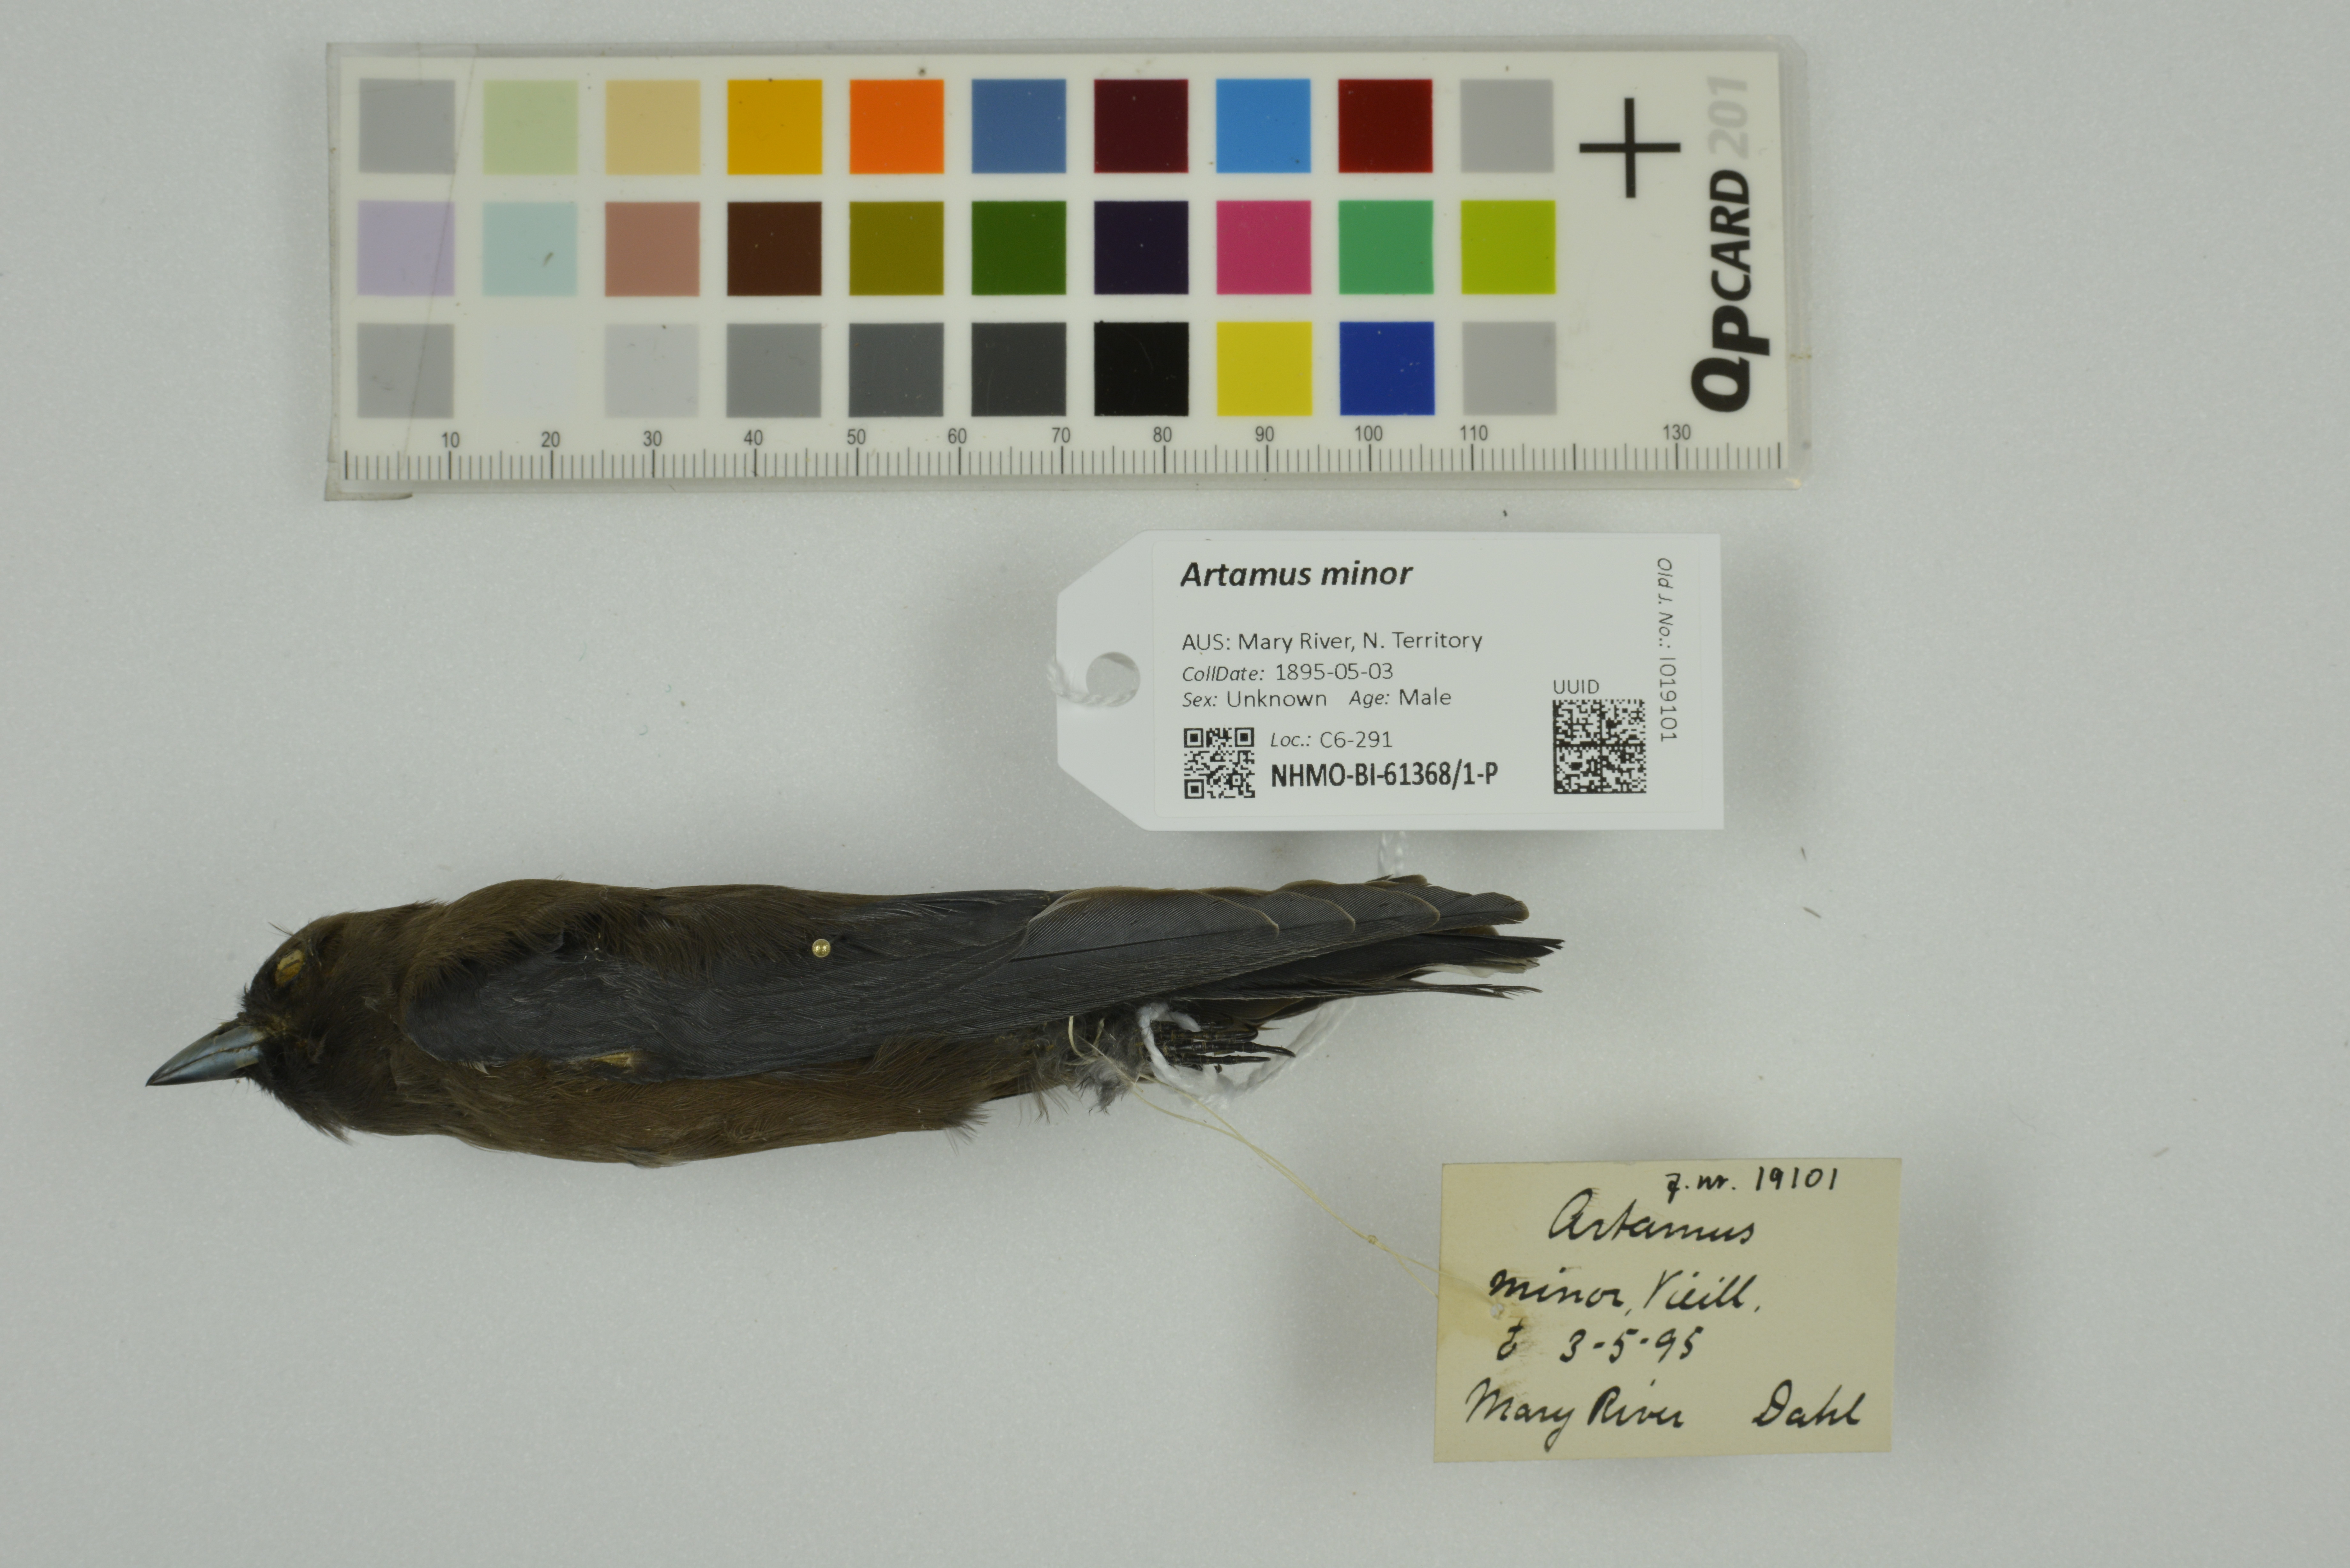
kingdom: Animalia
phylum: Chordata
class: Aves
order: Passeriformes
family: Artamidae
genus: Artamus
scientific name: Artamus minor
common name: Little woodswallow
